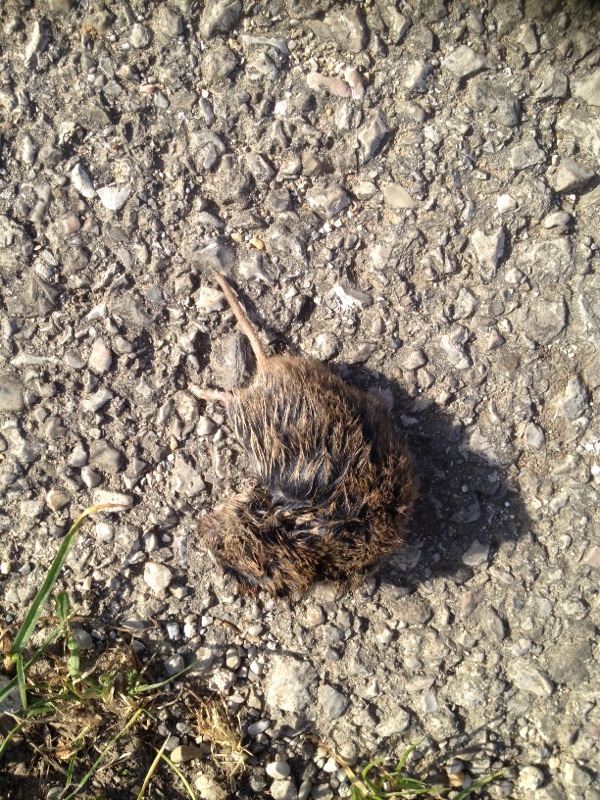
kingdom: Animalia
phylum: Chordata
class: Mammalia
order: Rodentia
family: Cricetidae
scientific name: Cricetidae
